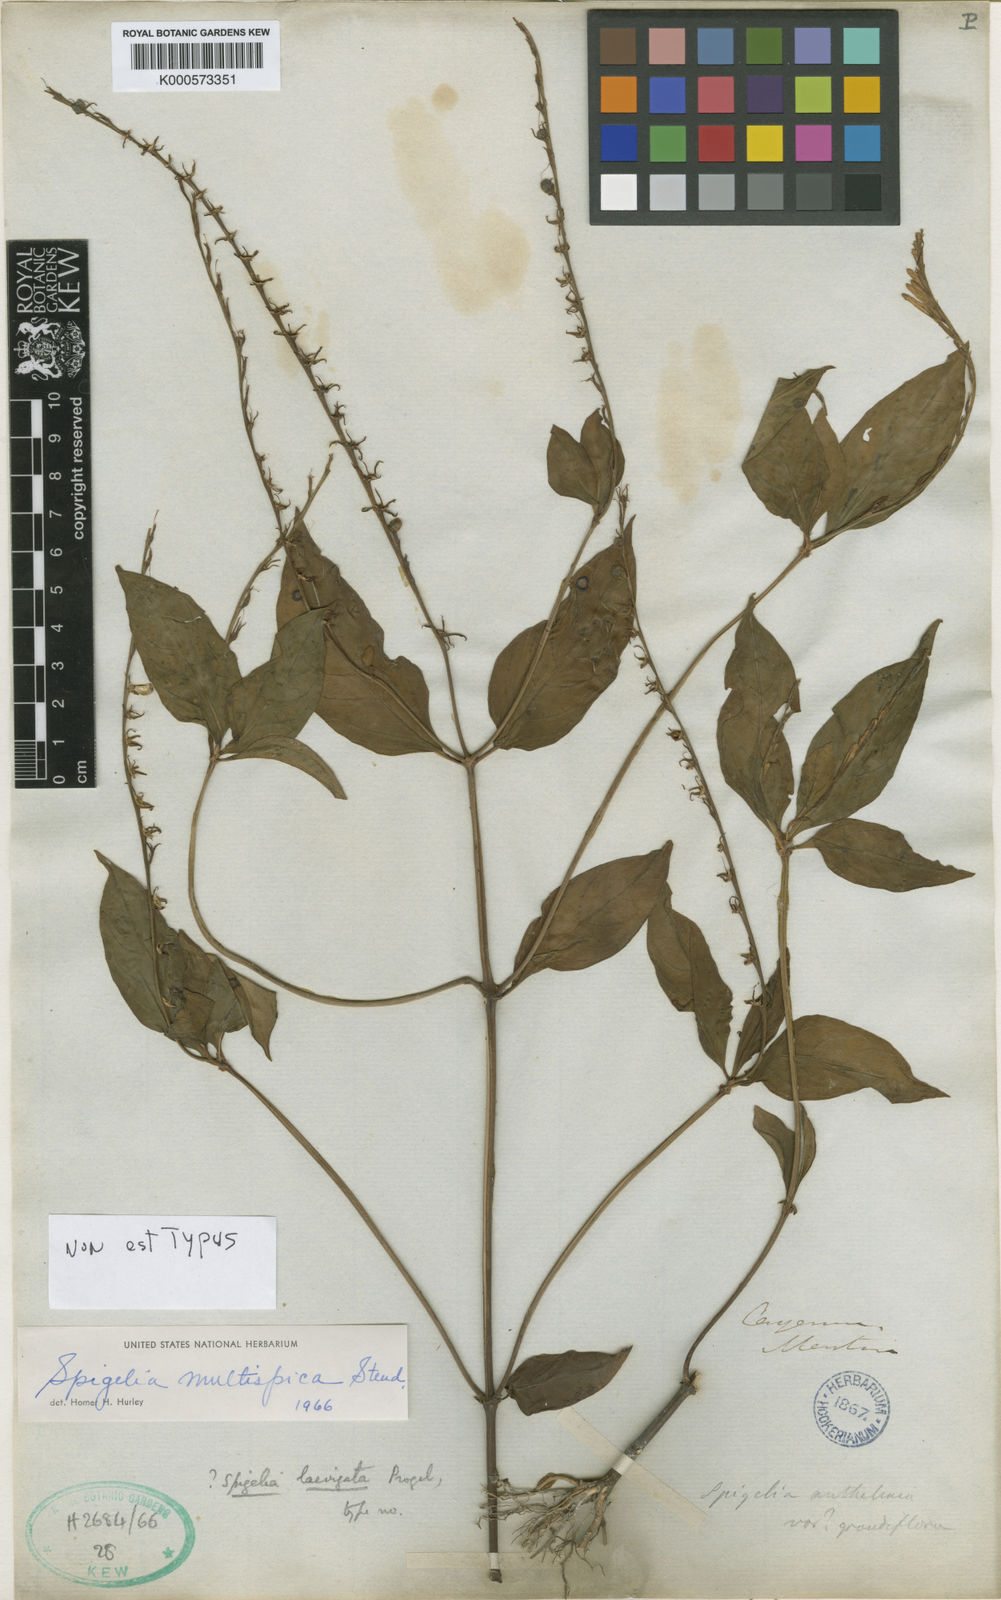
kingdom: Plantae
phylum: Tracheophyta
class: Magnoliopsida
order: Gentianales
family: Loganiaceae
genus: Spigelia
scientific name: Spigelia hamellioides
